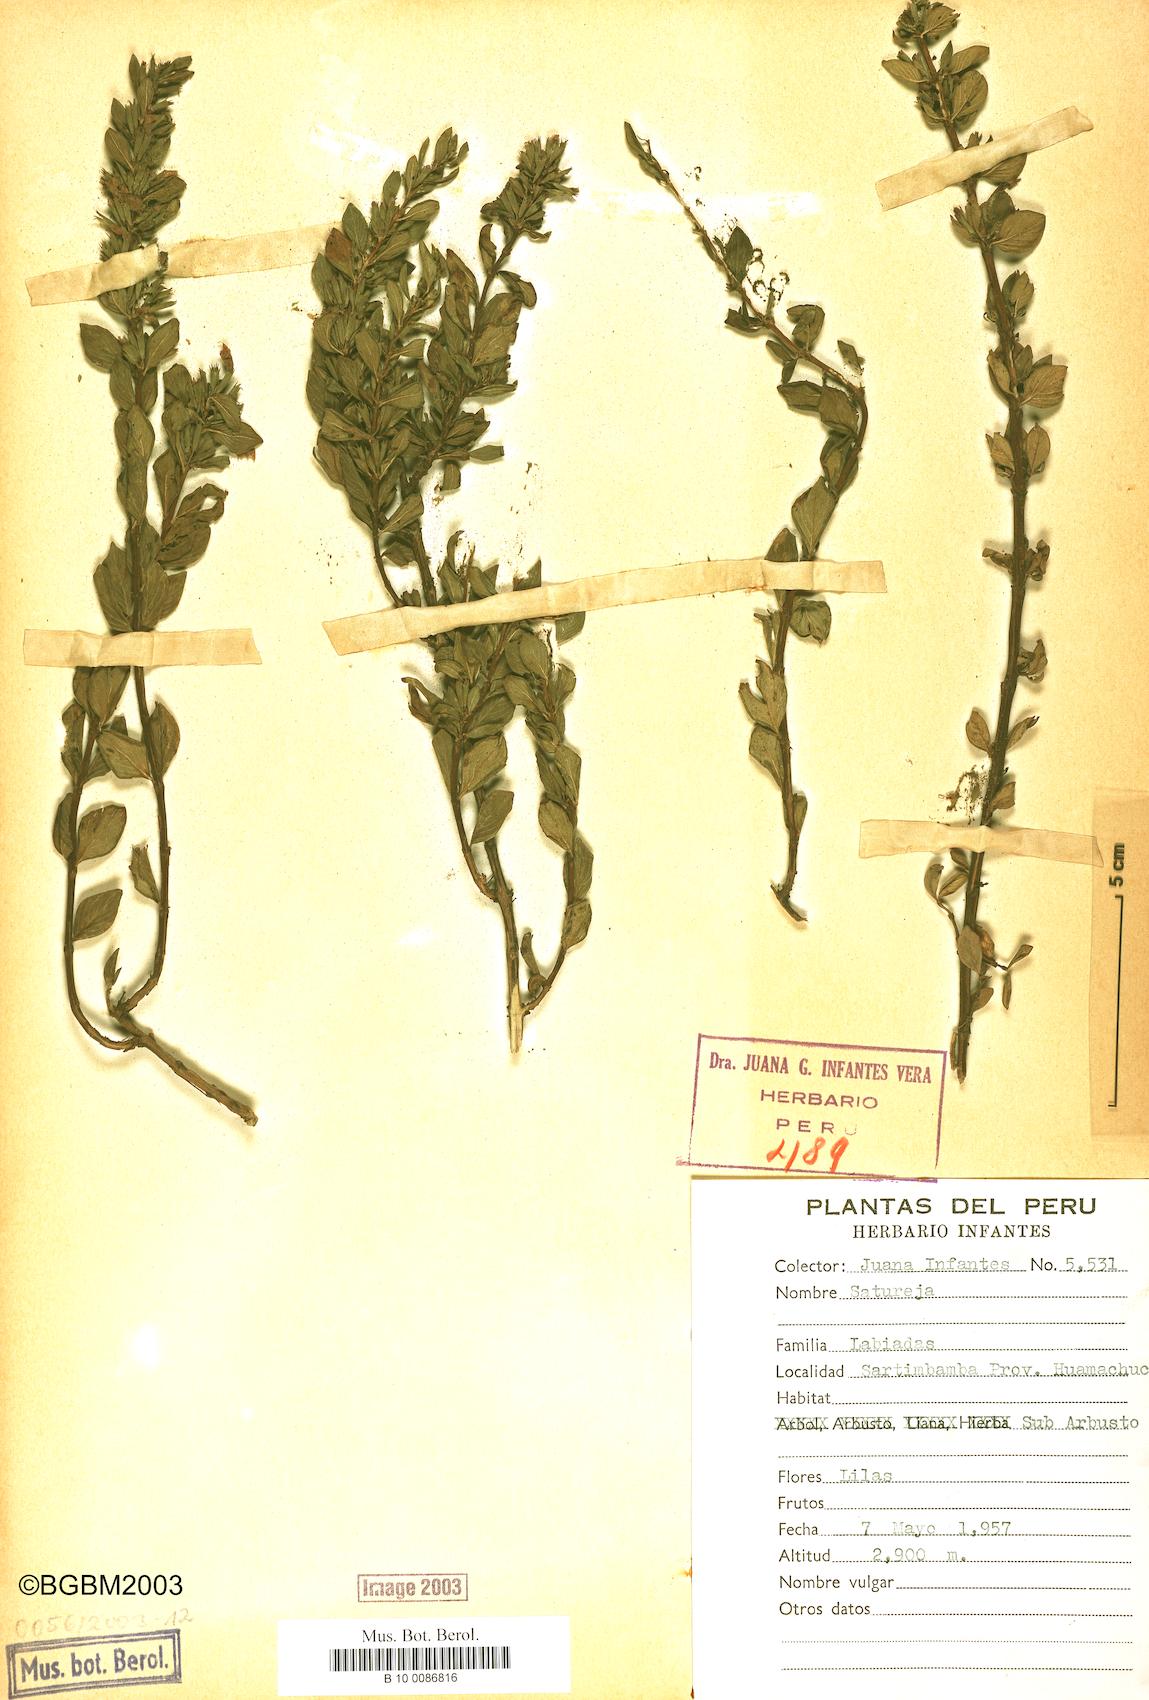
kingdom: Plantae
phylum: Tracheophyta
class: Magnoliopsida
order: Lamiales
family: Lamiaceae
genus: Satureja
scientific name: Satureja
